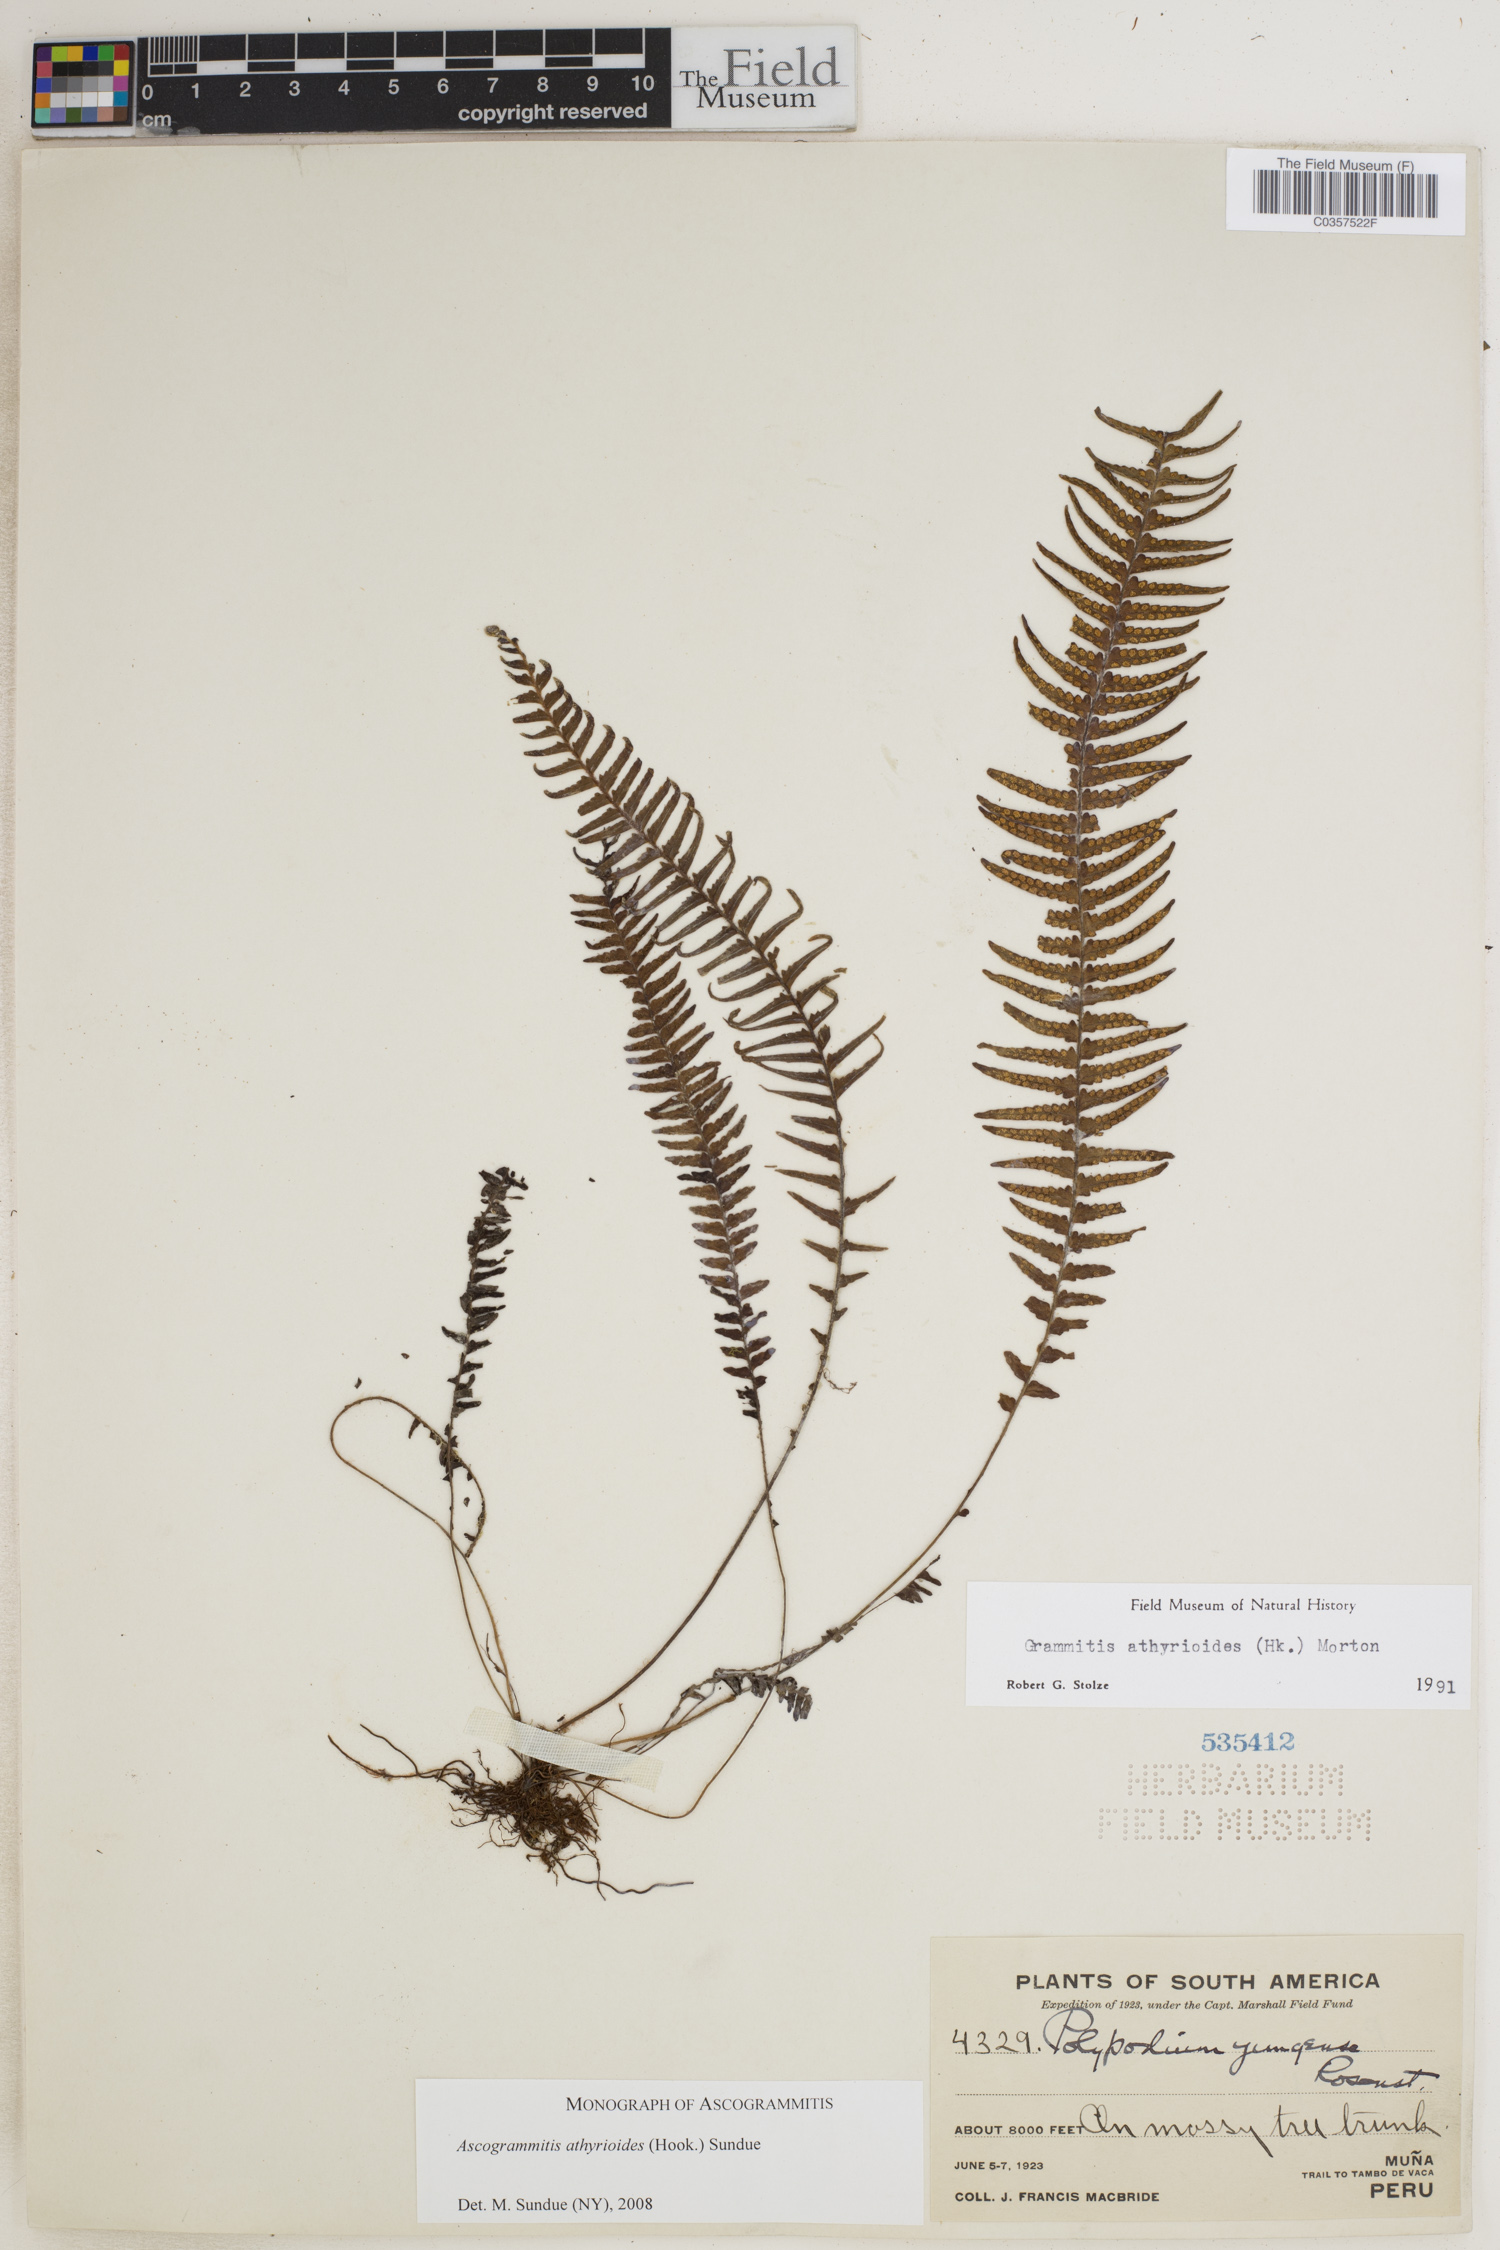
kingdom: Plantae
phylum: Tracheophyta
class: Polypodiopsida
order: Polypodiales
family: Polypodiaceae
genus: Ascogrammitis
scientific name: Ascogrammitis athyrioides
